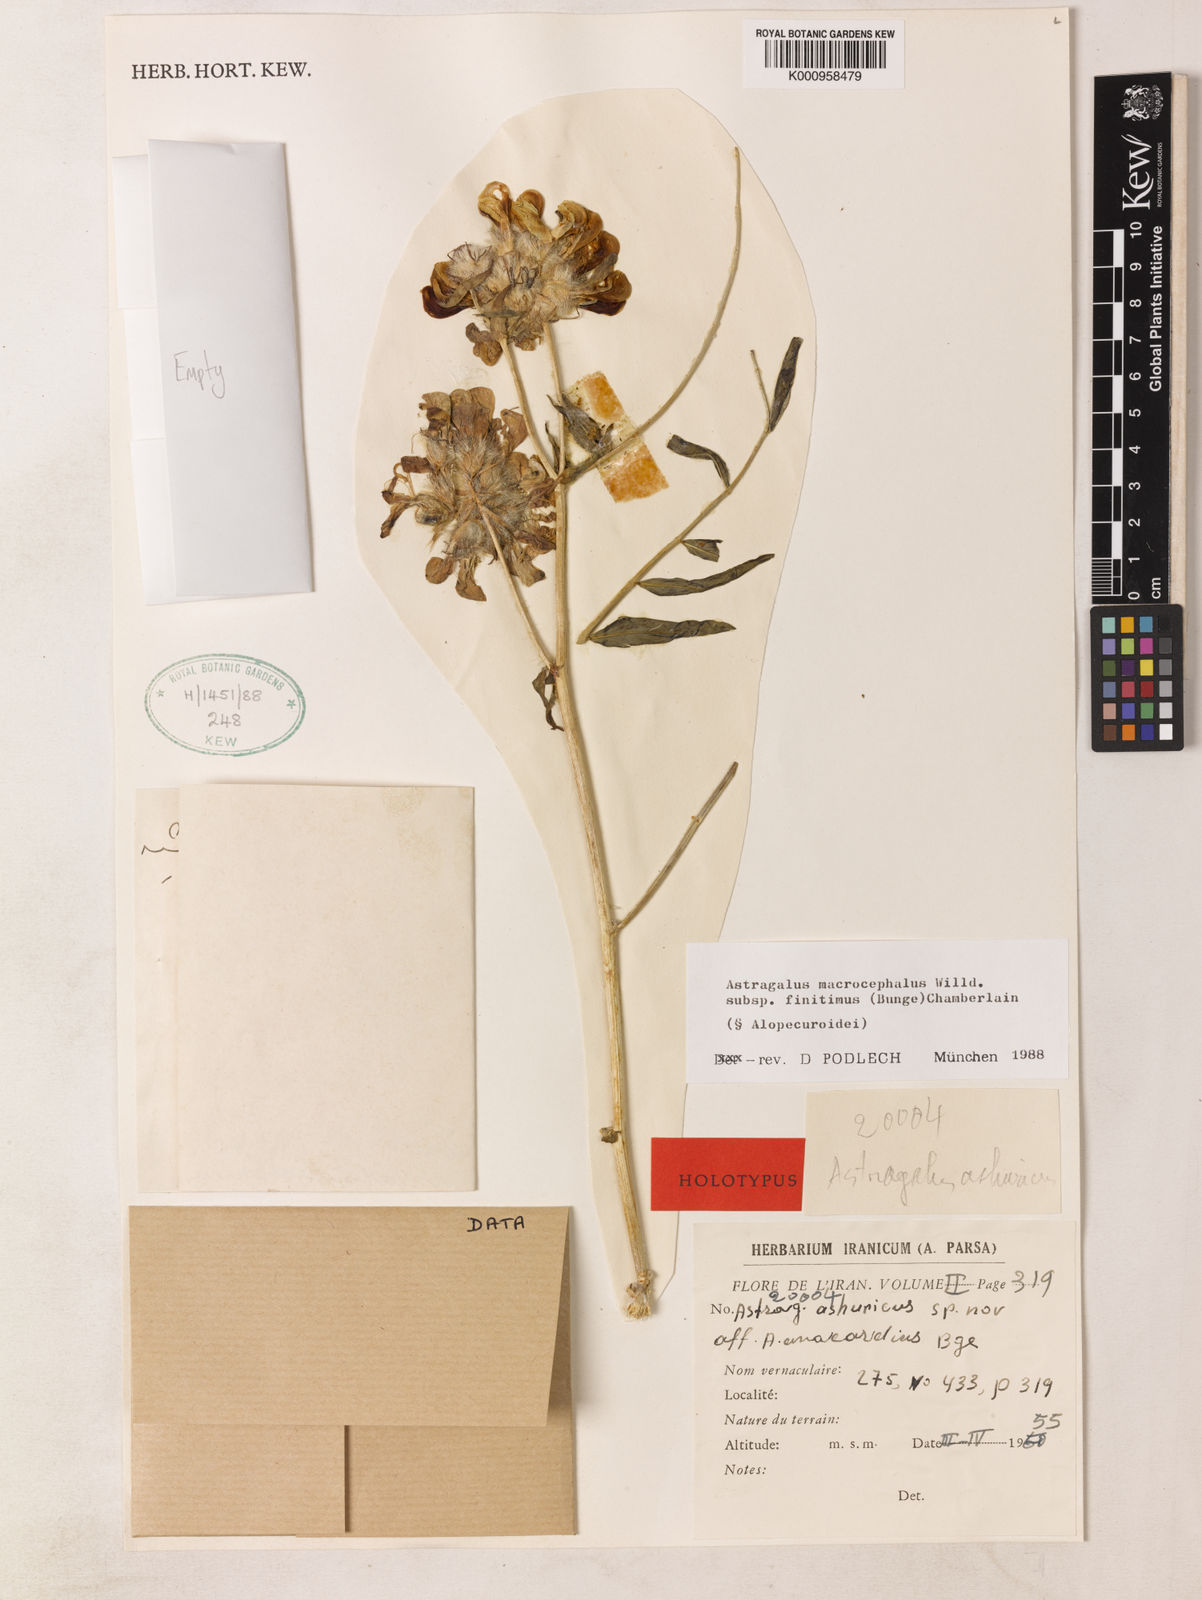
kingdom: Plantae
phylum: Tracheophyta
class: Magnoliopsida
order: Fabales
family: Fabaceae
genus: Astragalus
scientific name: Astragalus macrocephalus
